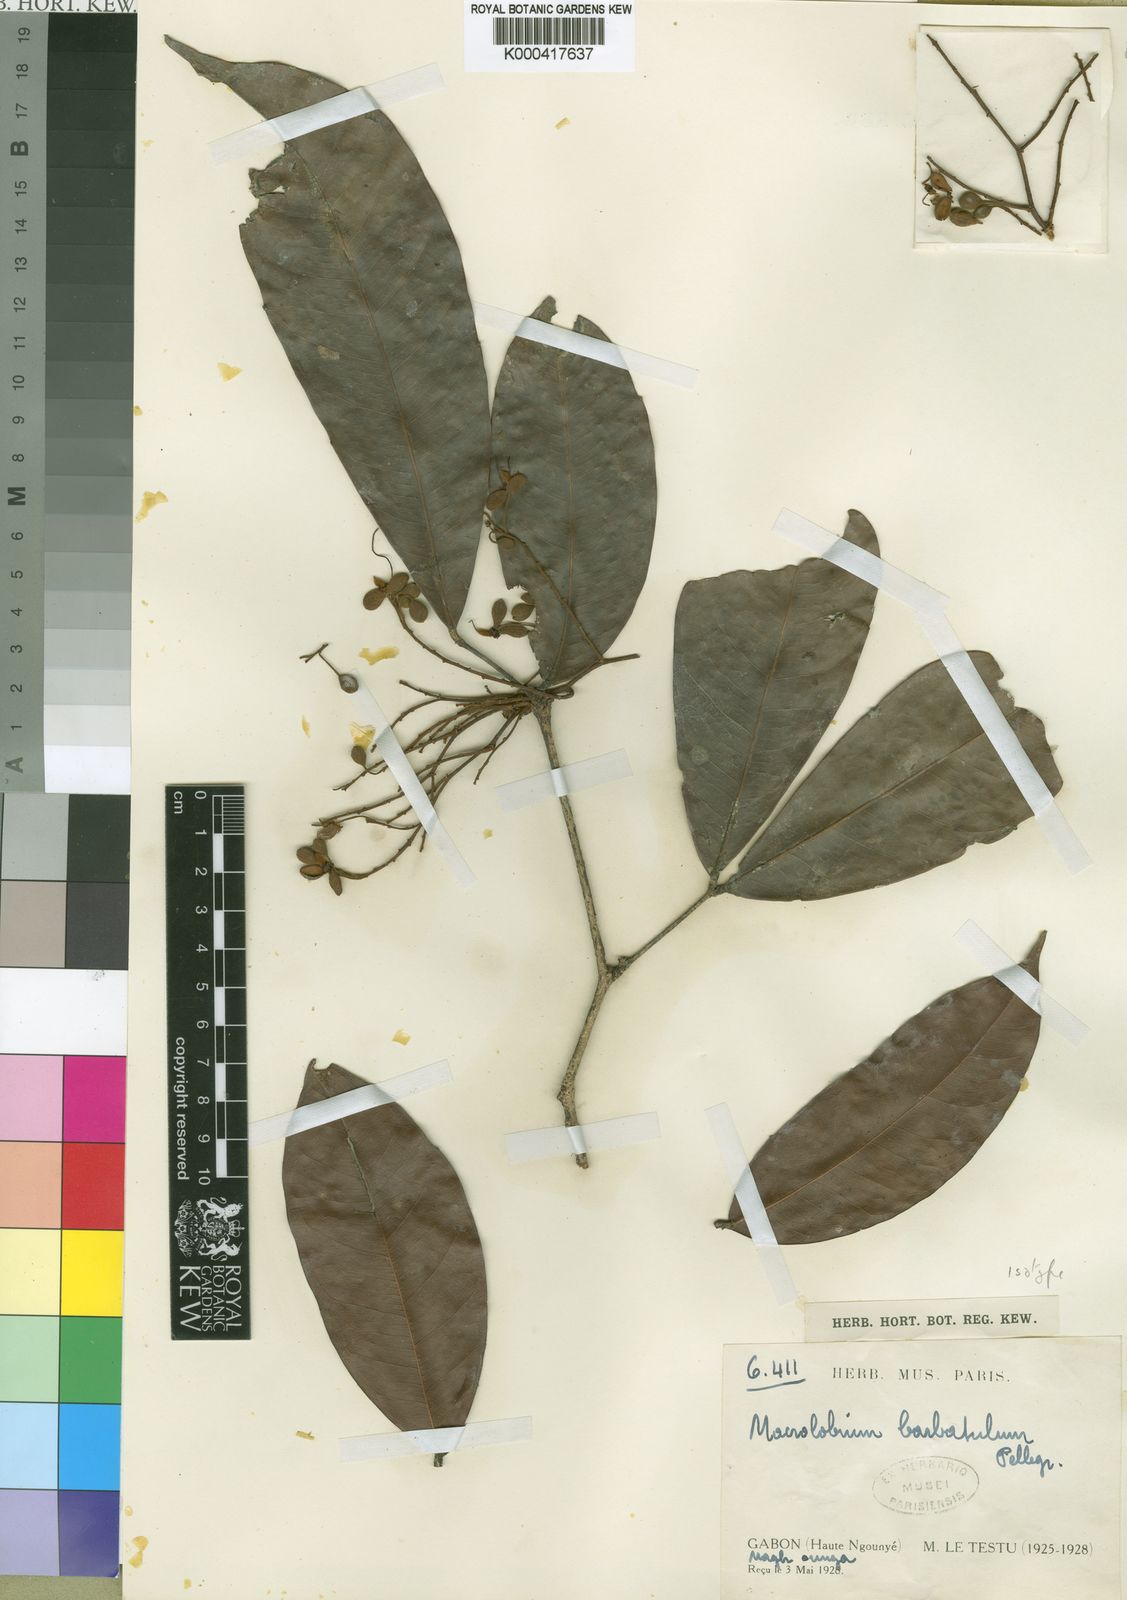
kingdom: Plantae
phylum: Tracheophyta
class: Magnoliopsida
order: Fabales
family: Fabaceae
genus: Gilbertiodendron
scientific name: Gilbertiodendron
